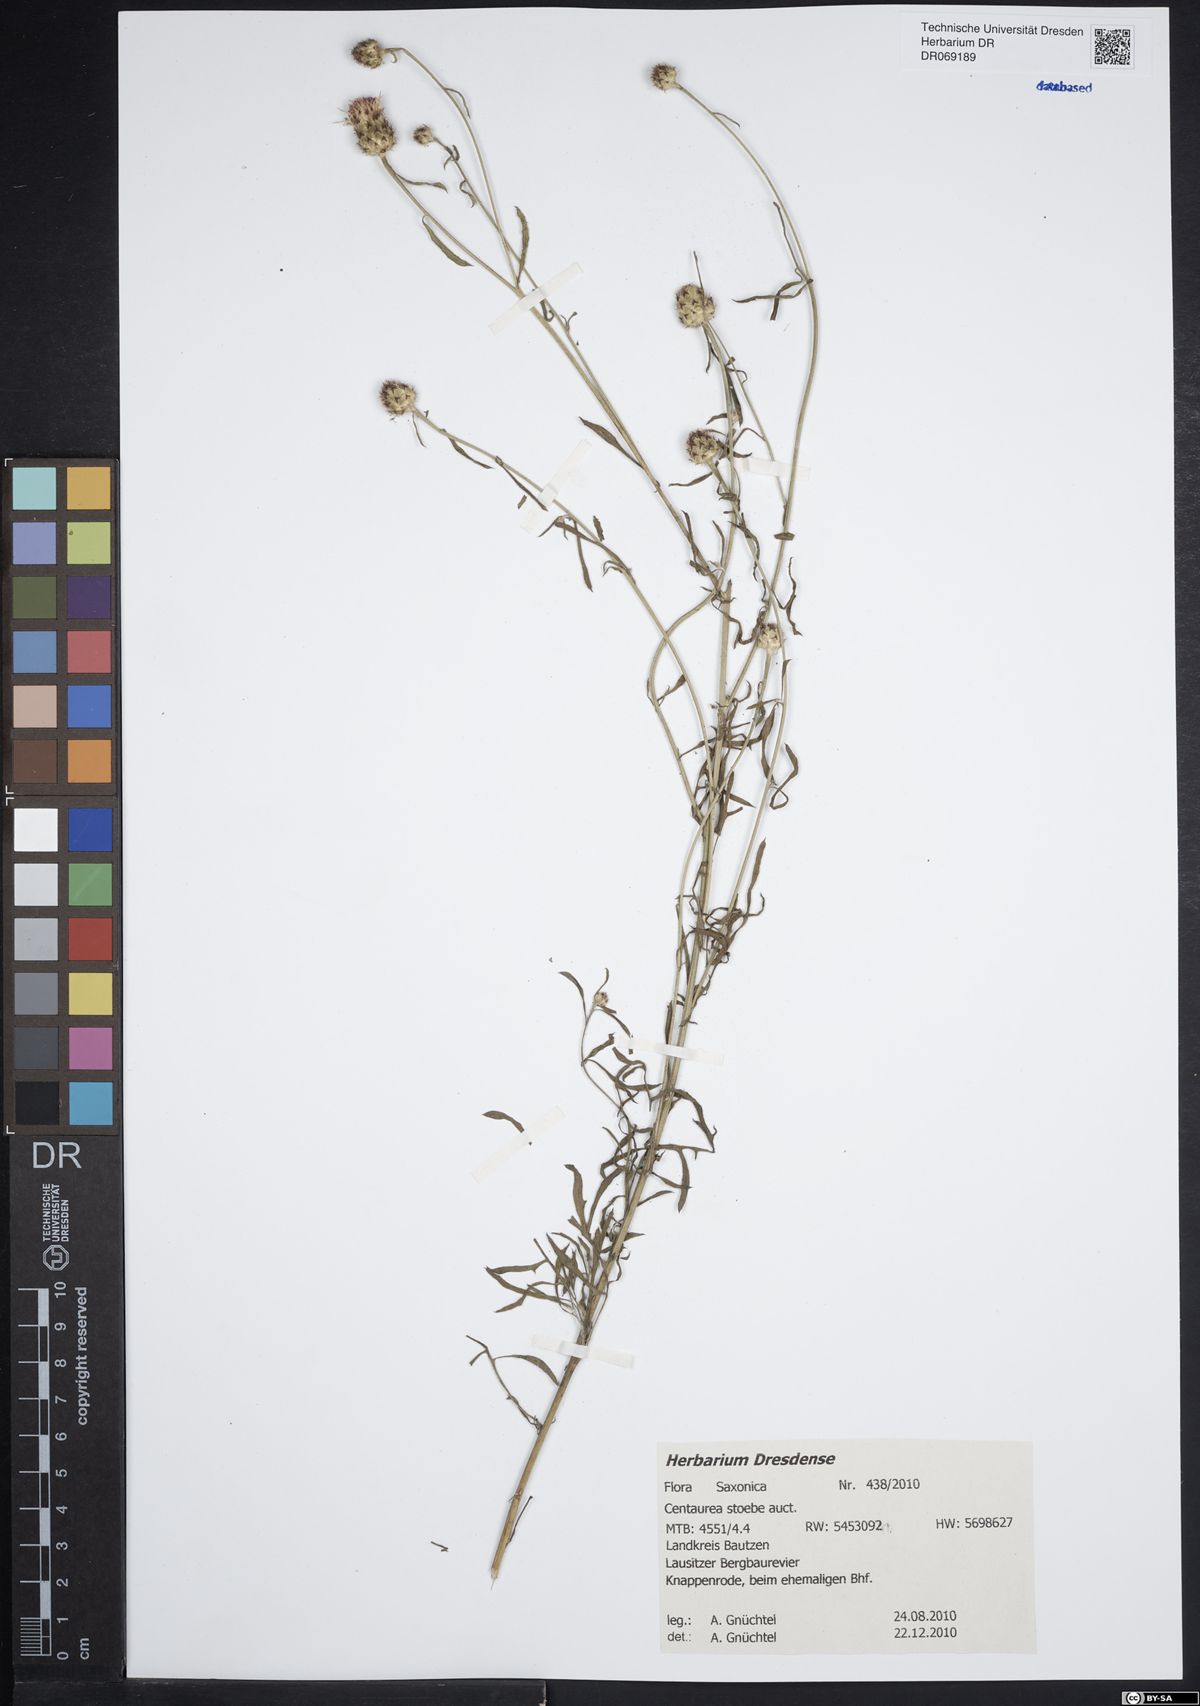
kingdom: Plantae
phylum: Tracheophyta
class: Magnoliopsida
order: Asterales
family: Asteraceae
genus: Centaurea
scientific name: Centaurea stoebe
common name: Spotted knapweed
